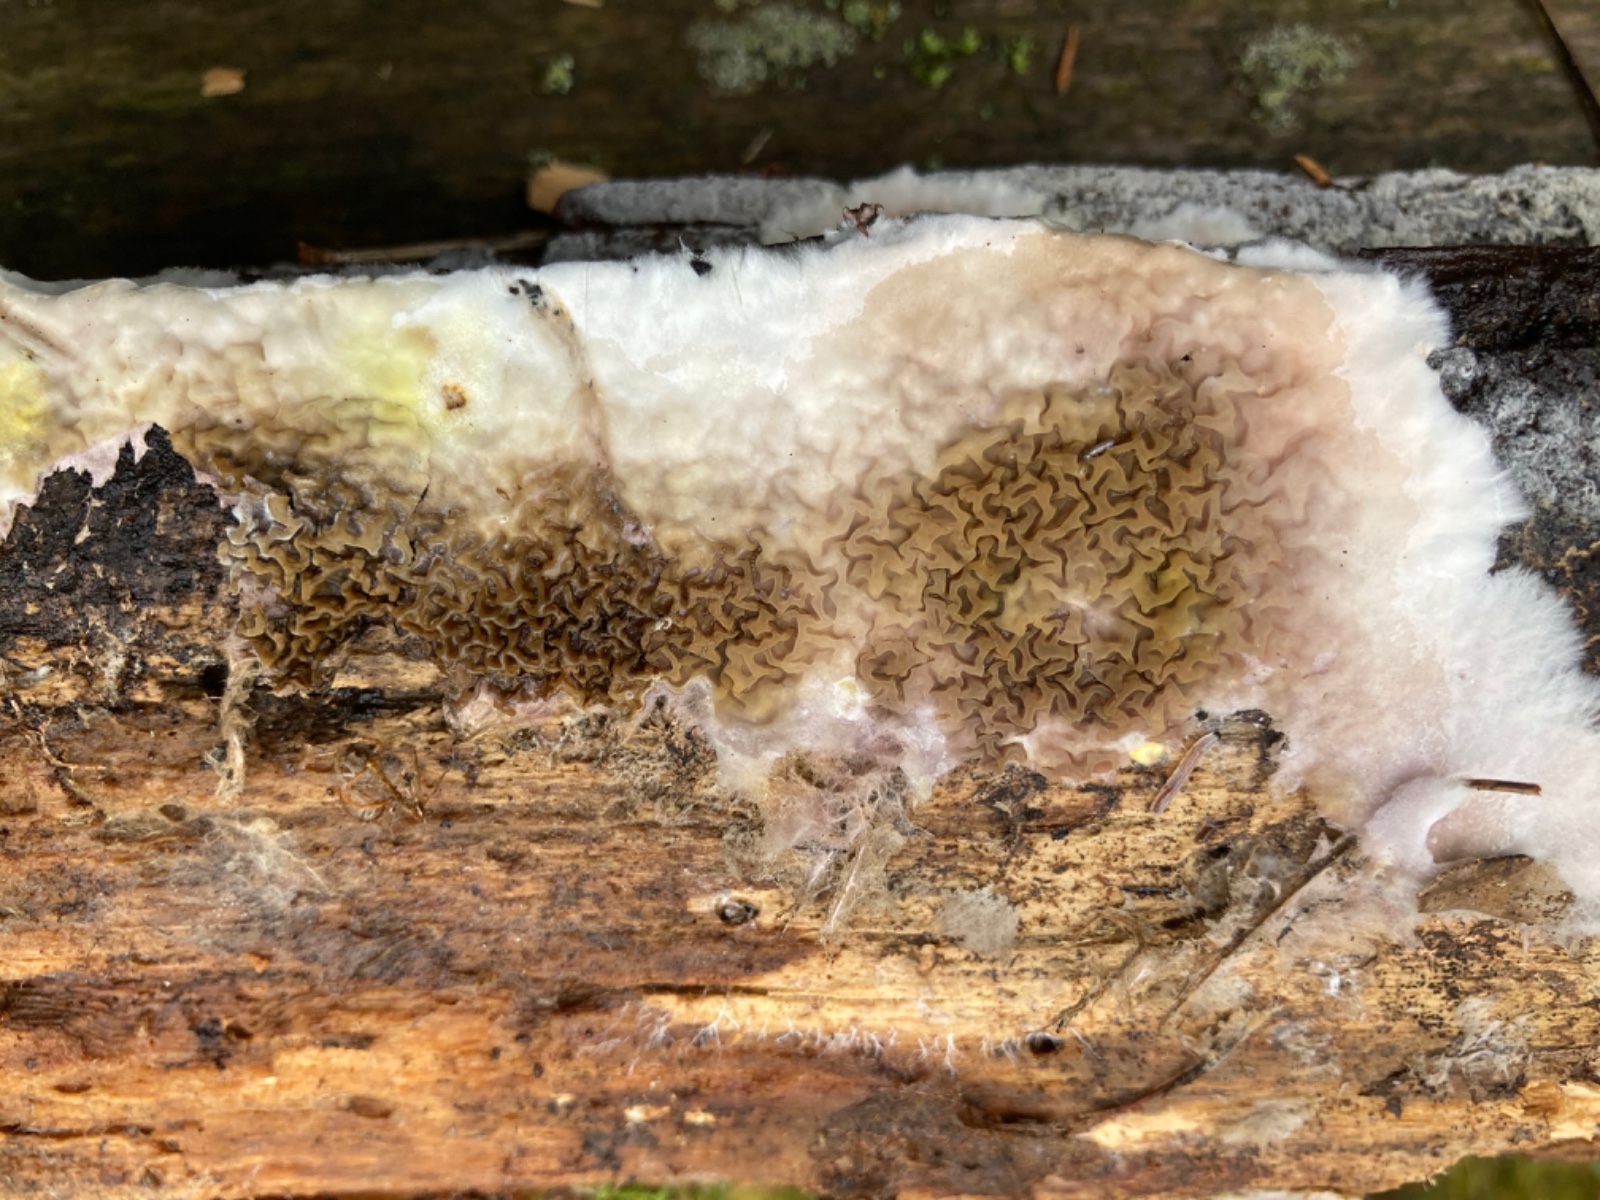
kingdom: Fungi
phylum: Basidiomycota
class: Agaricomycetes
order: Boletales
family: Serpulaceae
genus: Serpula
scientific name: Serpula himantioides
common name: tyndkødet hussvamp
